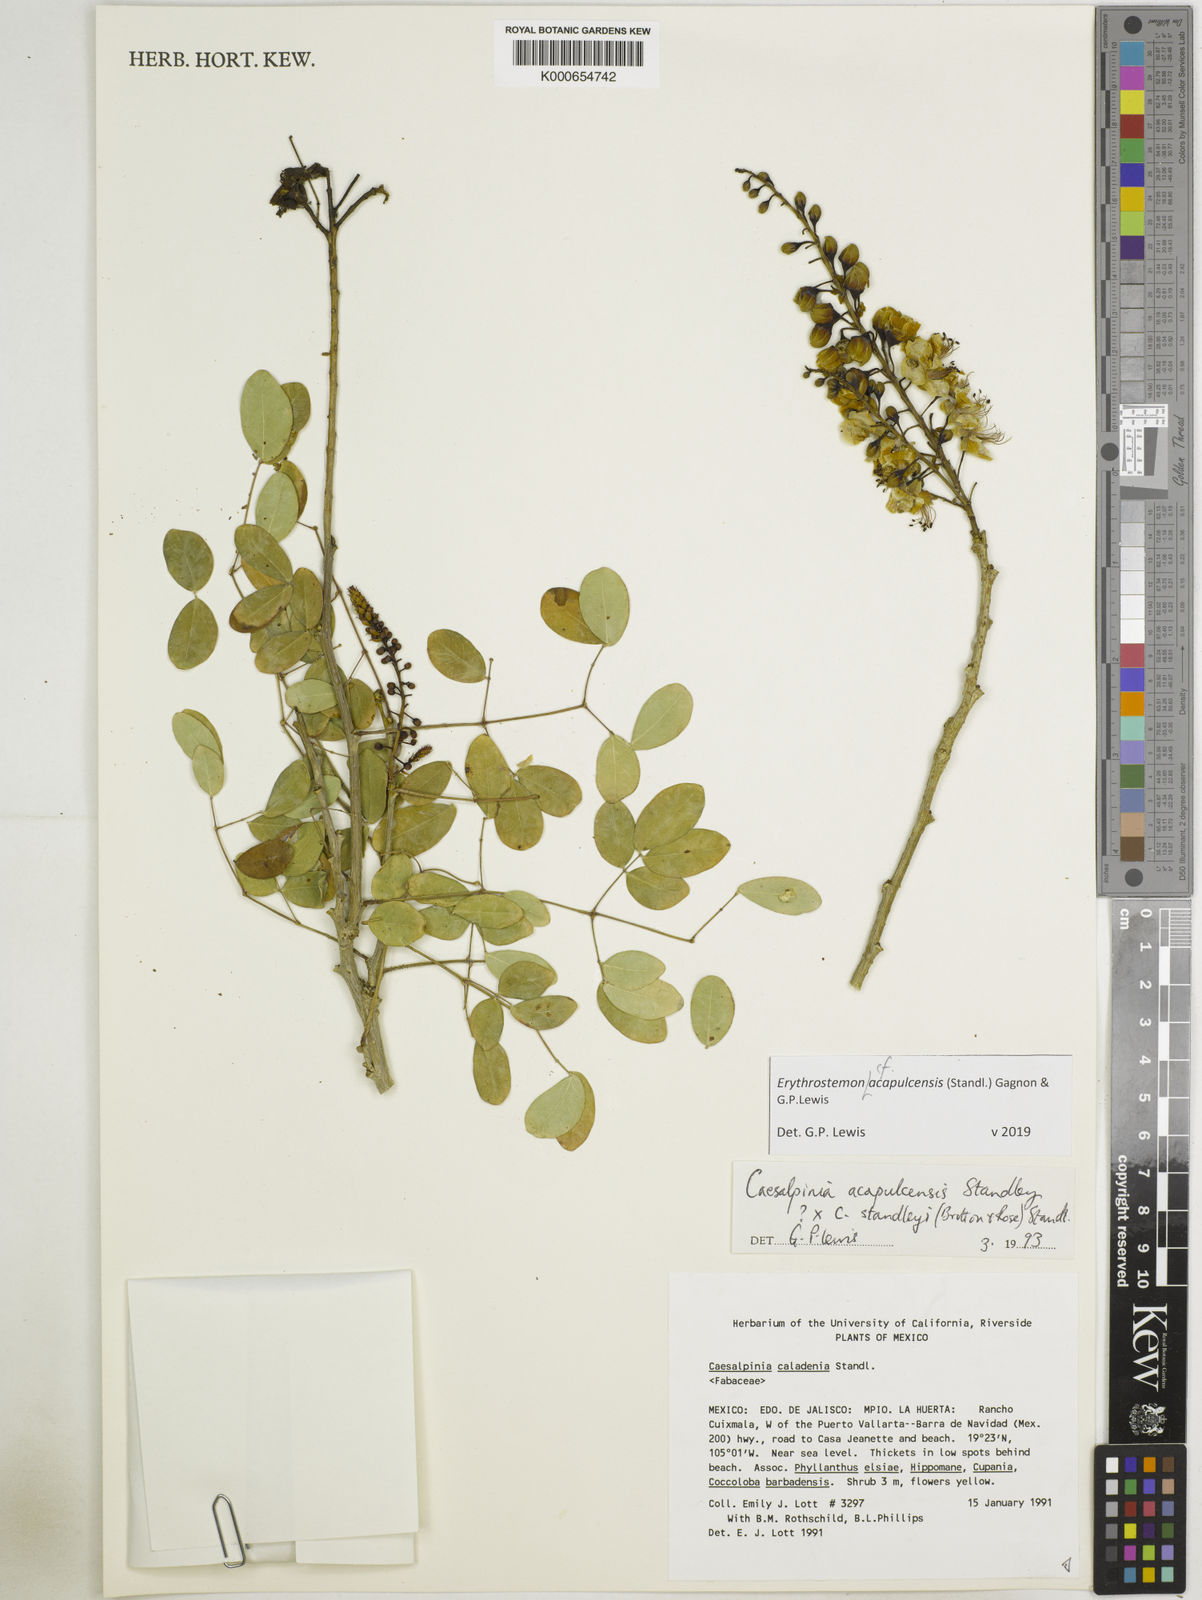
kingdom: Plantae
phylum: Tracheophyta
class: Magnoliopsida
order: Fabales
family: Fabaceae
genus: Erythrostemon
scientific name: Erythrostemon acapulcensis
